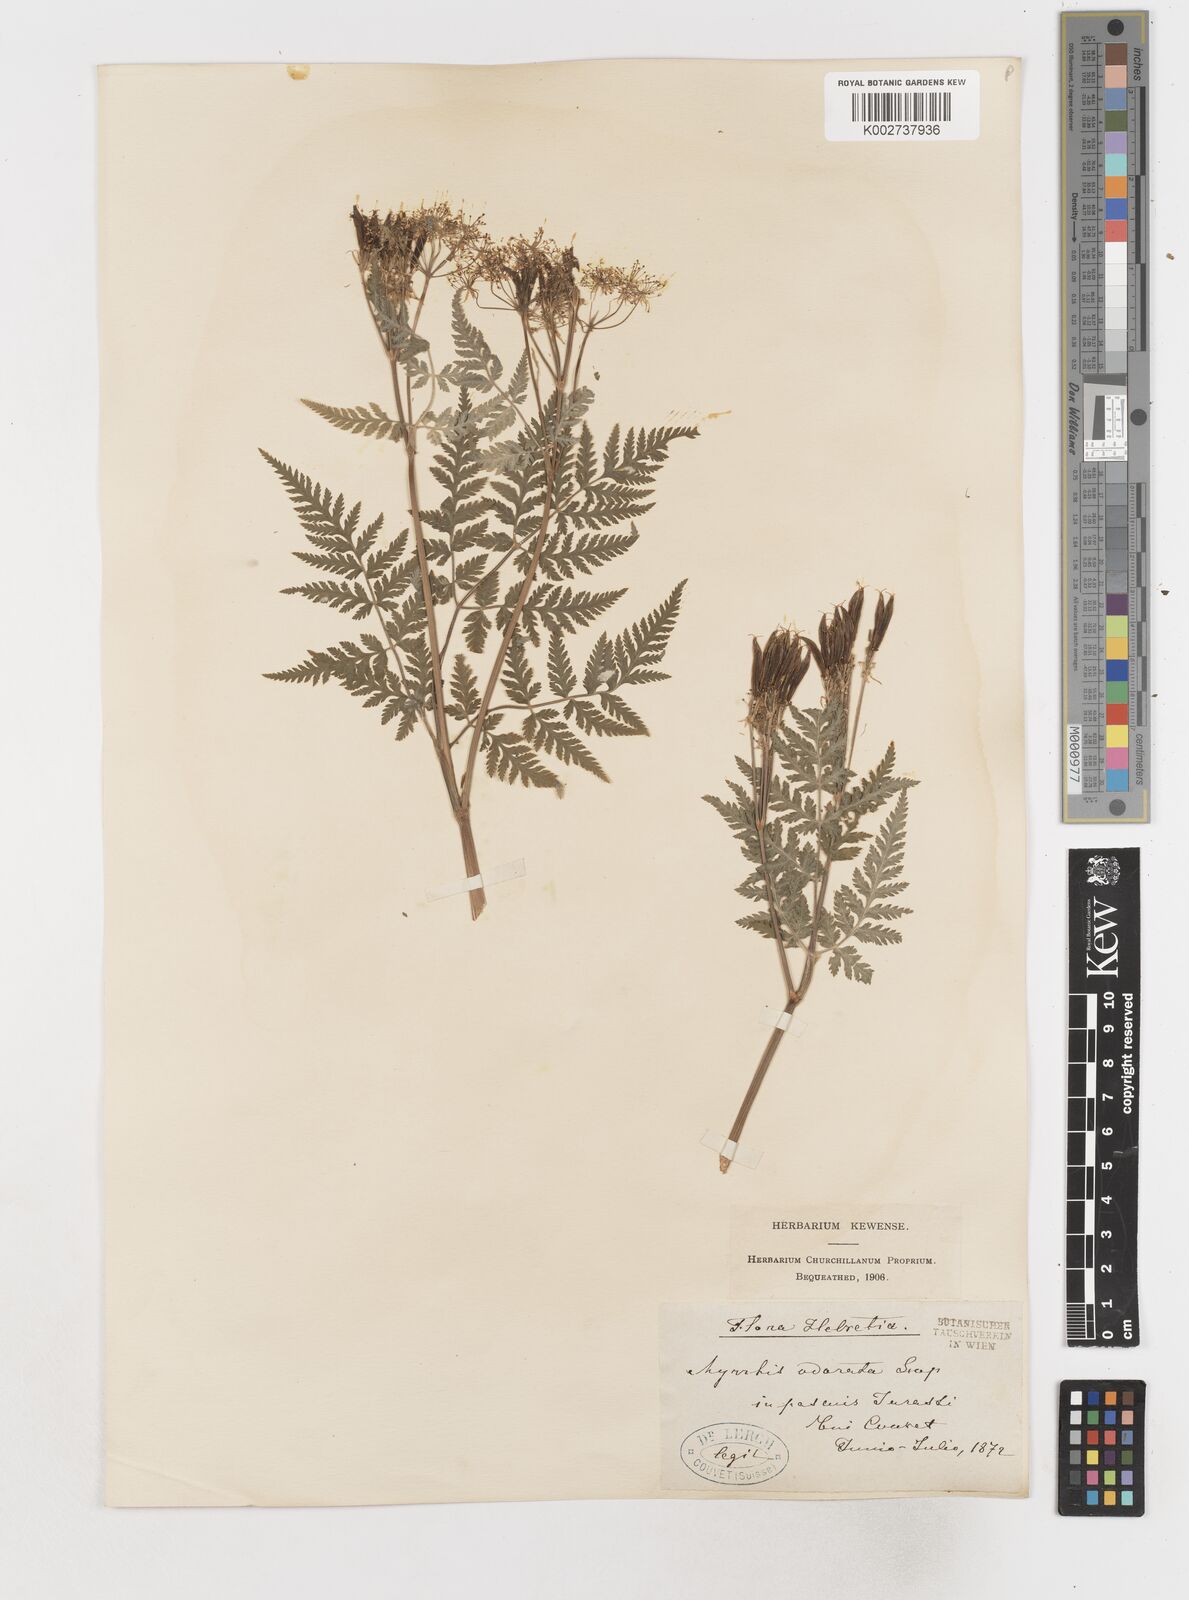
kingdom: Plantae
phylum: Tracheophyta
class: Magnoliopsida
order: Apiales
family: Apiaceae
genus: Myrrhis
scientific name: Myrrhis odorata
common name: Sweet cicely
